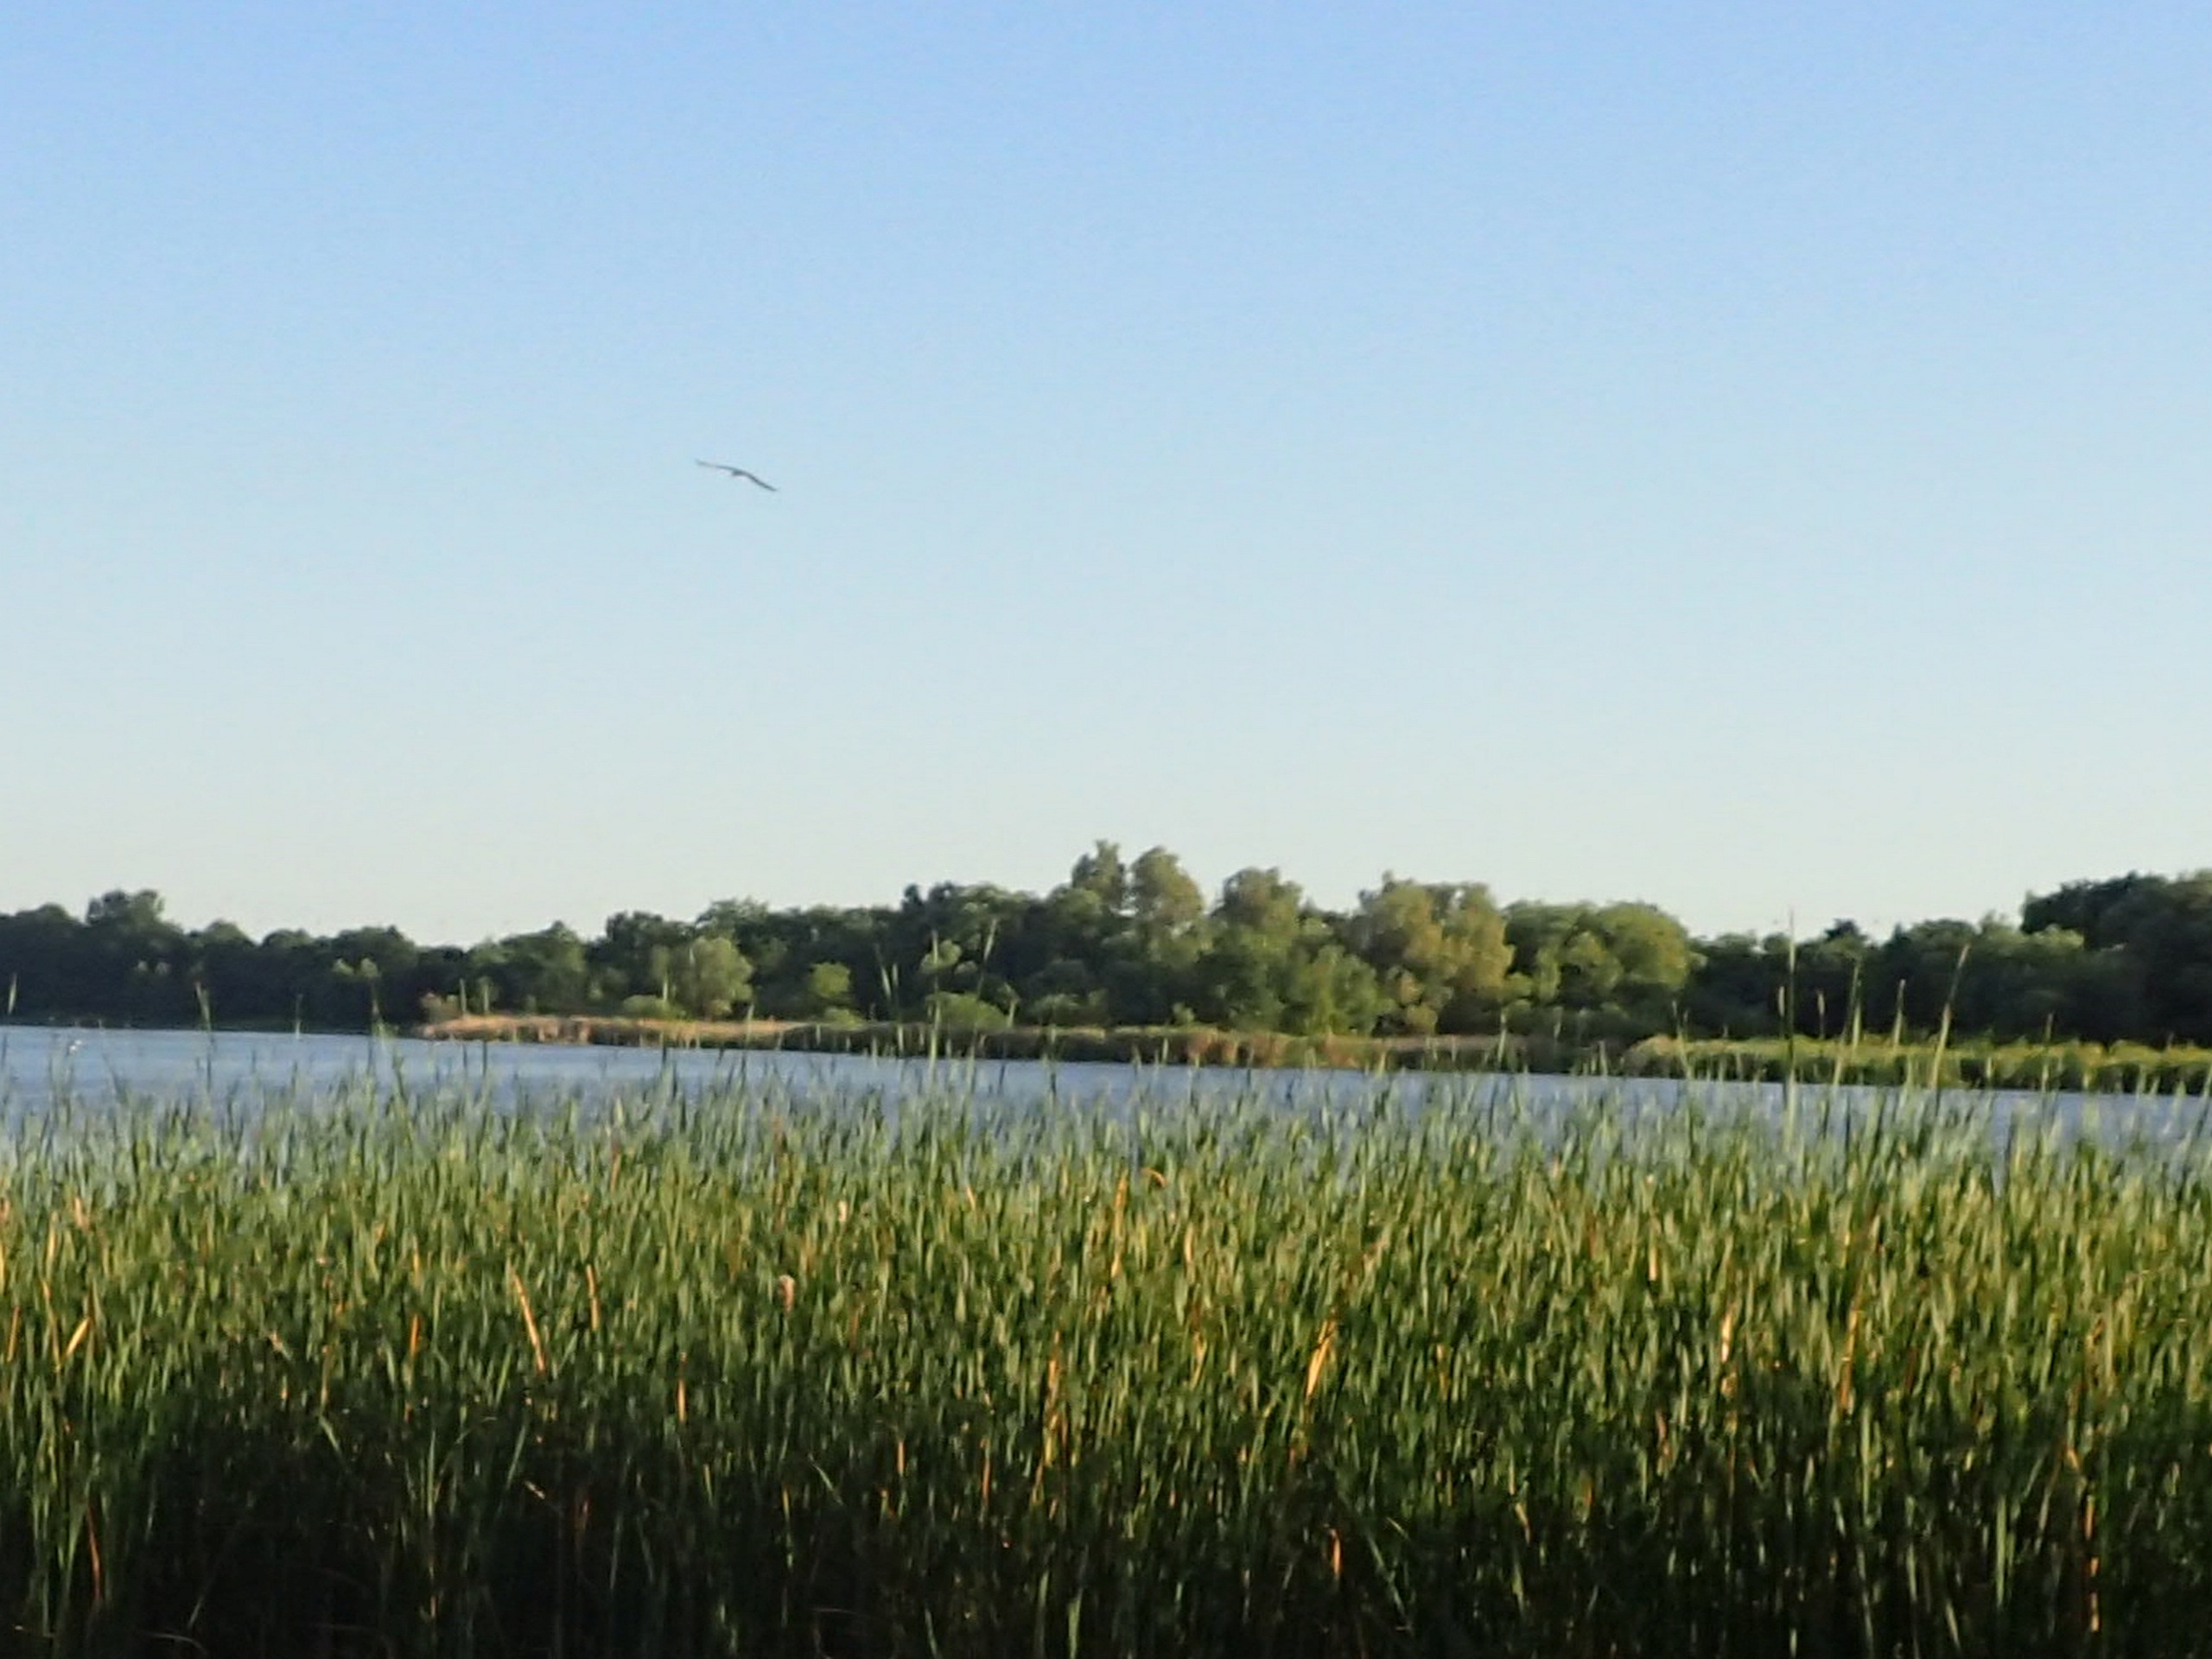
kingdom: Animalia
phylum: Chordata
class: Aves
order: Charadriiformes
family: Laridae
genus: Hydroprogne
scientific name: Hydroprogne caspia
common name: Rovterne
